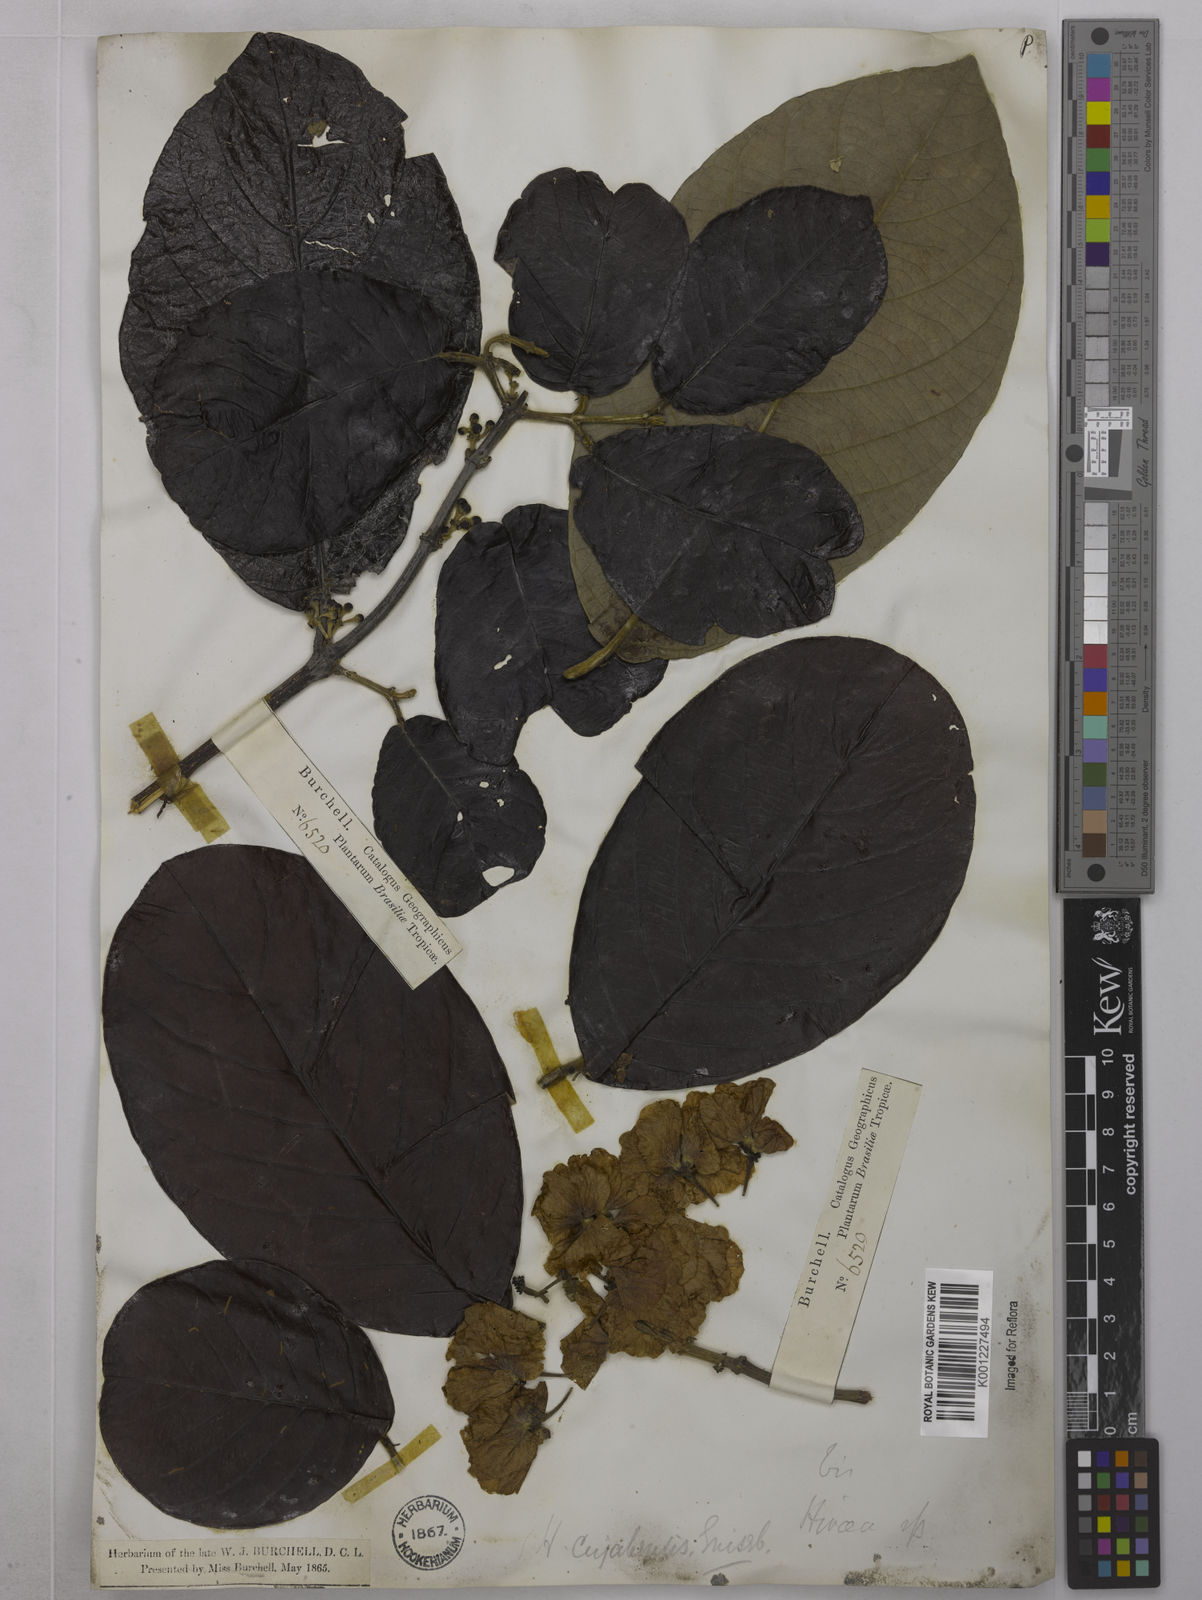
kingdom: Plantae
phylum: Tracheophyta
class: Magnoliopsida
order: Malpighiales
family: Malpighiaceae
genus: Hiraea
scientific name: Hiraea cuiabensis
